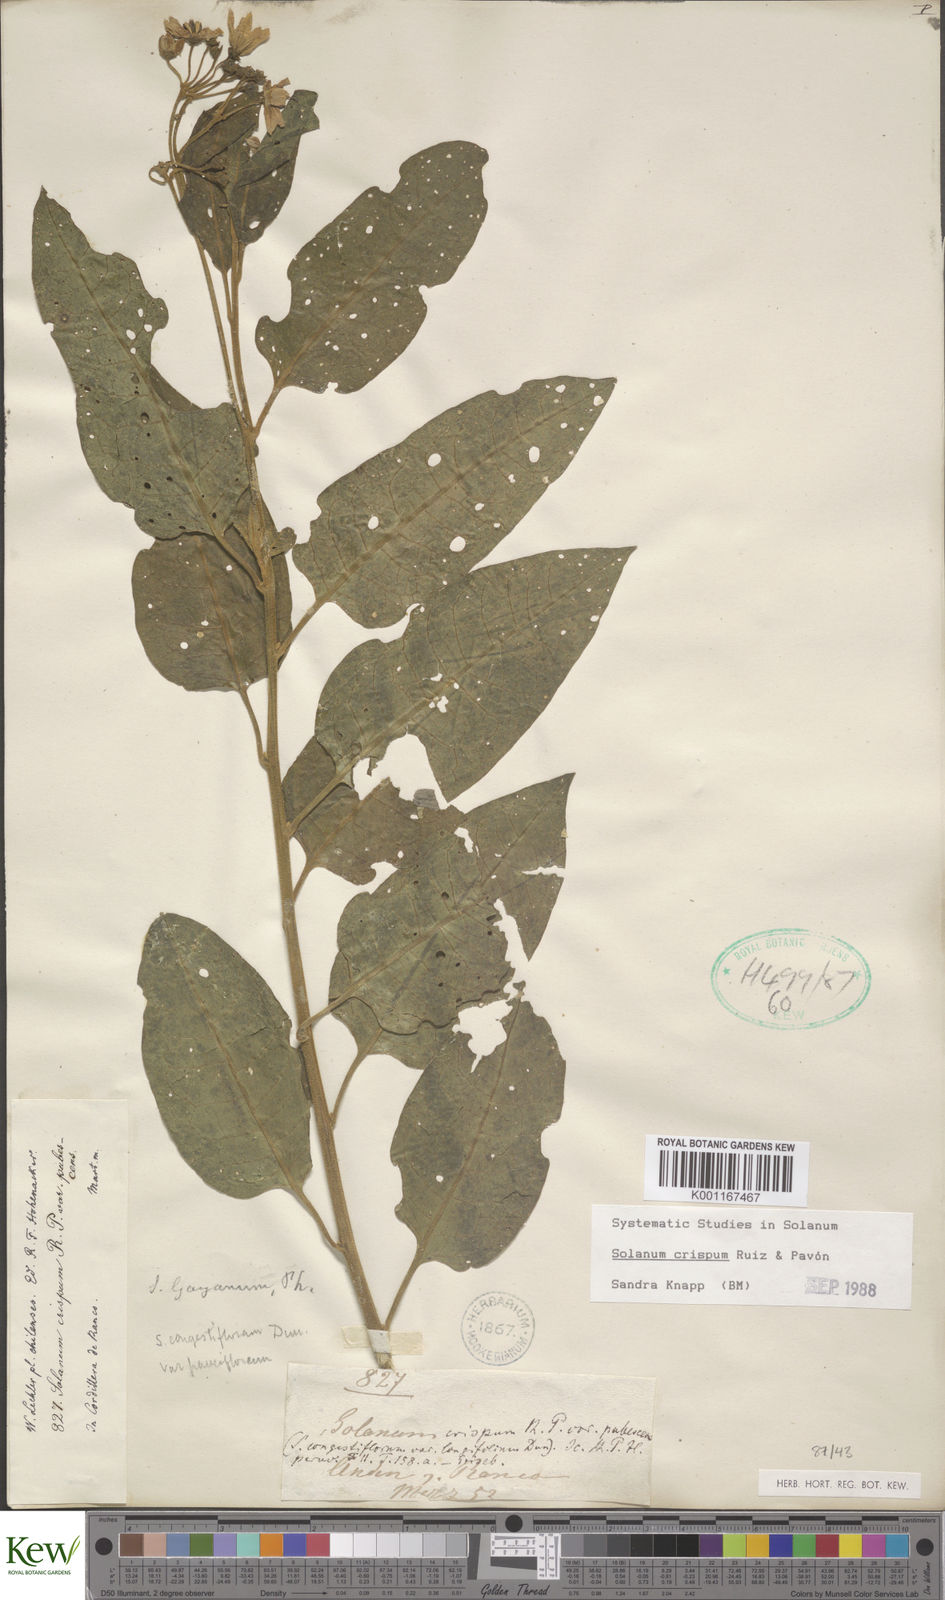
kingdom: Plantae
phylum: Tracheophyta
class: Magnoliopsida
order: Solanales
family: Solanaceae
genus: Solanum
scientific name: Solanum crispum
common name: Chilean nightshade
